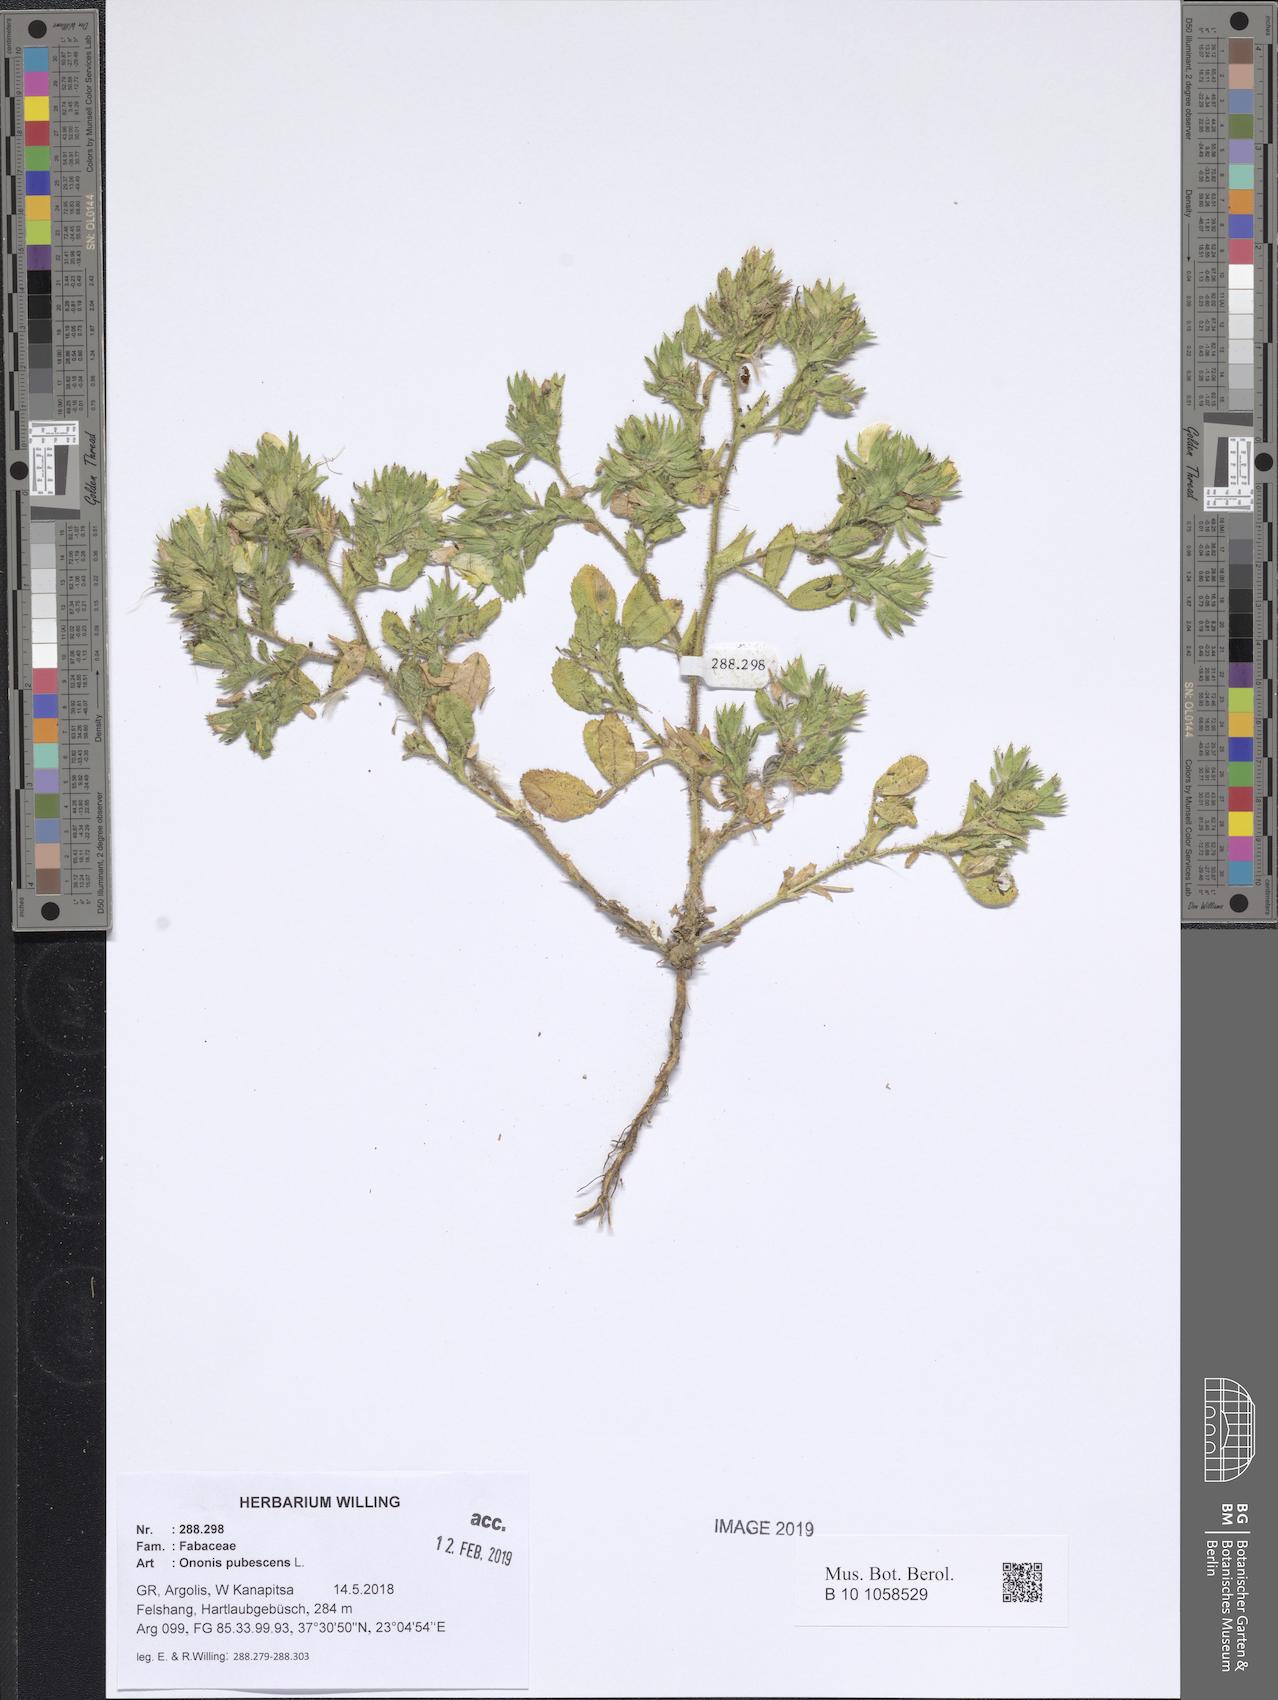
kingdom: Plantae
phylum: Tracheophyta
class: Magnoliopsida
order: Fabales
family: Fabaceae
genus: Ononis
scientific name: Ononis pubescens
